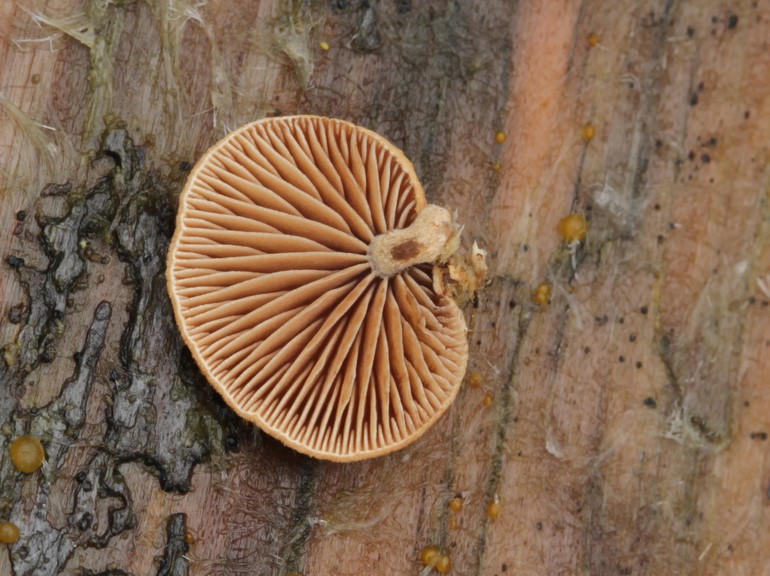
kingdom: Fungi
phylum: Basidiomycota
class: Agaricomycetes
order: Agaricales
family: Strophariaceae
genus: Deconica
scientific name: Deconica horizontalis
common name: ved-stråhat
